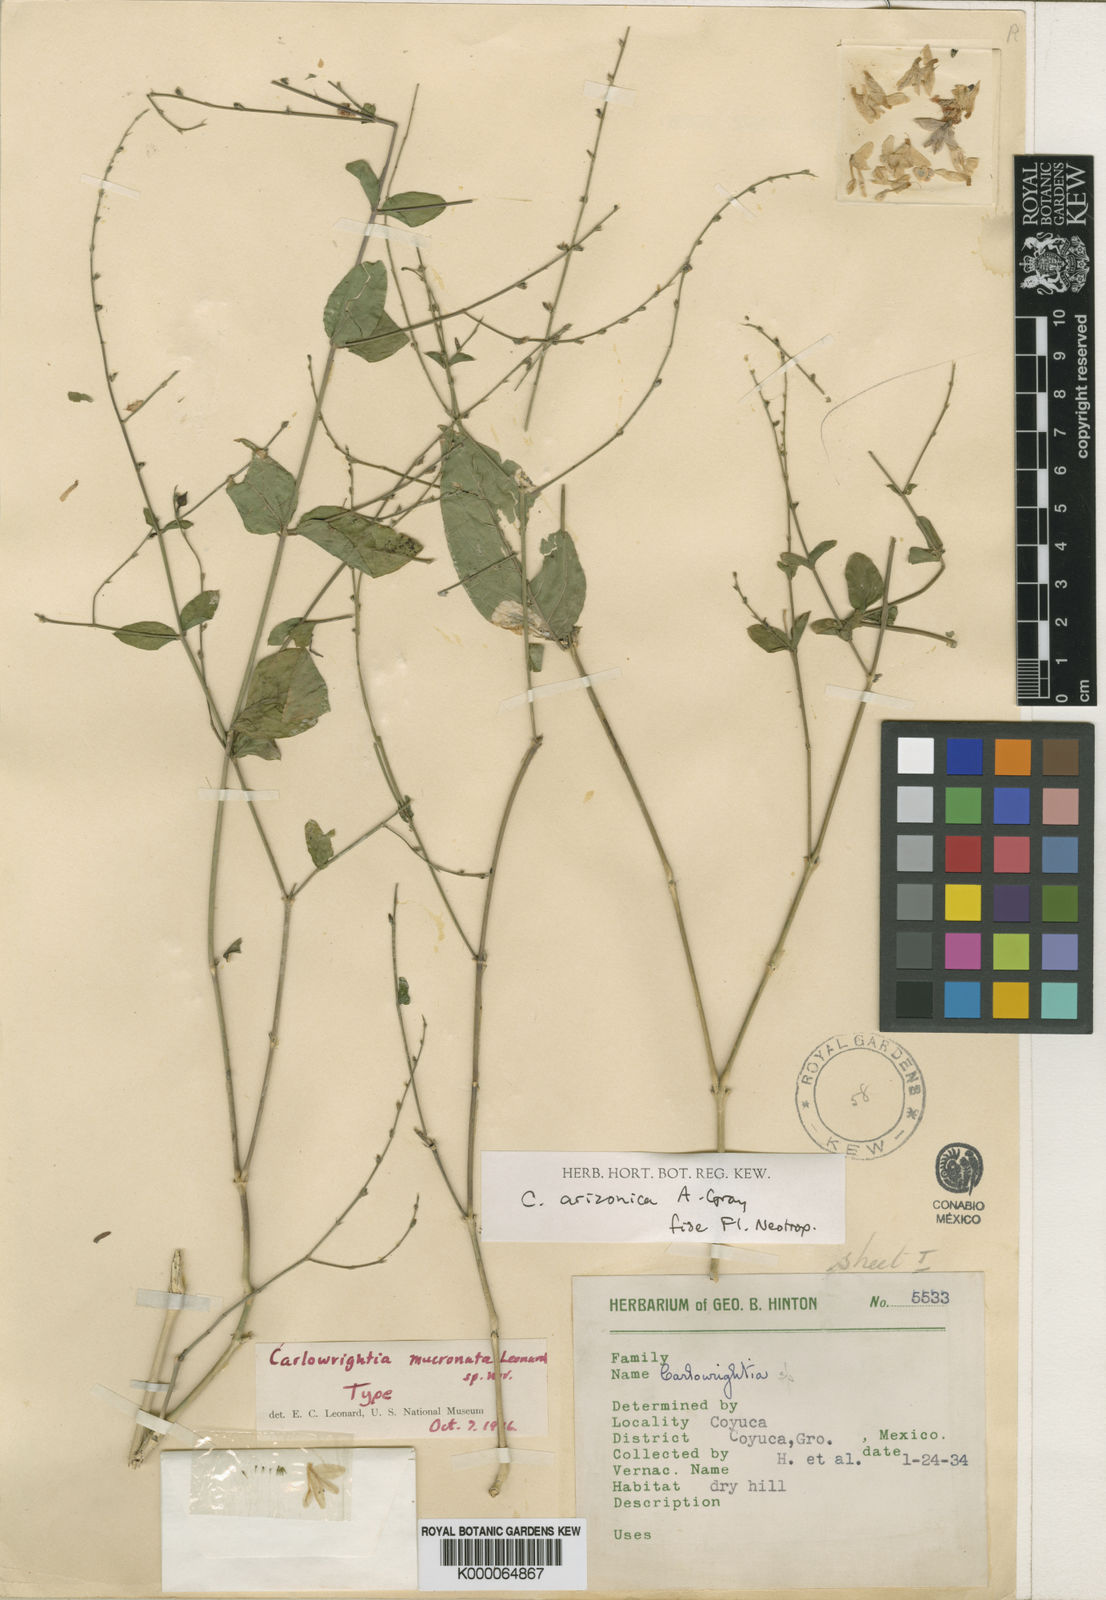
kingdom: Plantae
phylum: Tracheophyta
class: Magnoliopsida
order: Lamiales
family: Acanthaceae
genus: Carlowrightia
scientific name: Carlowrightia arizonica
